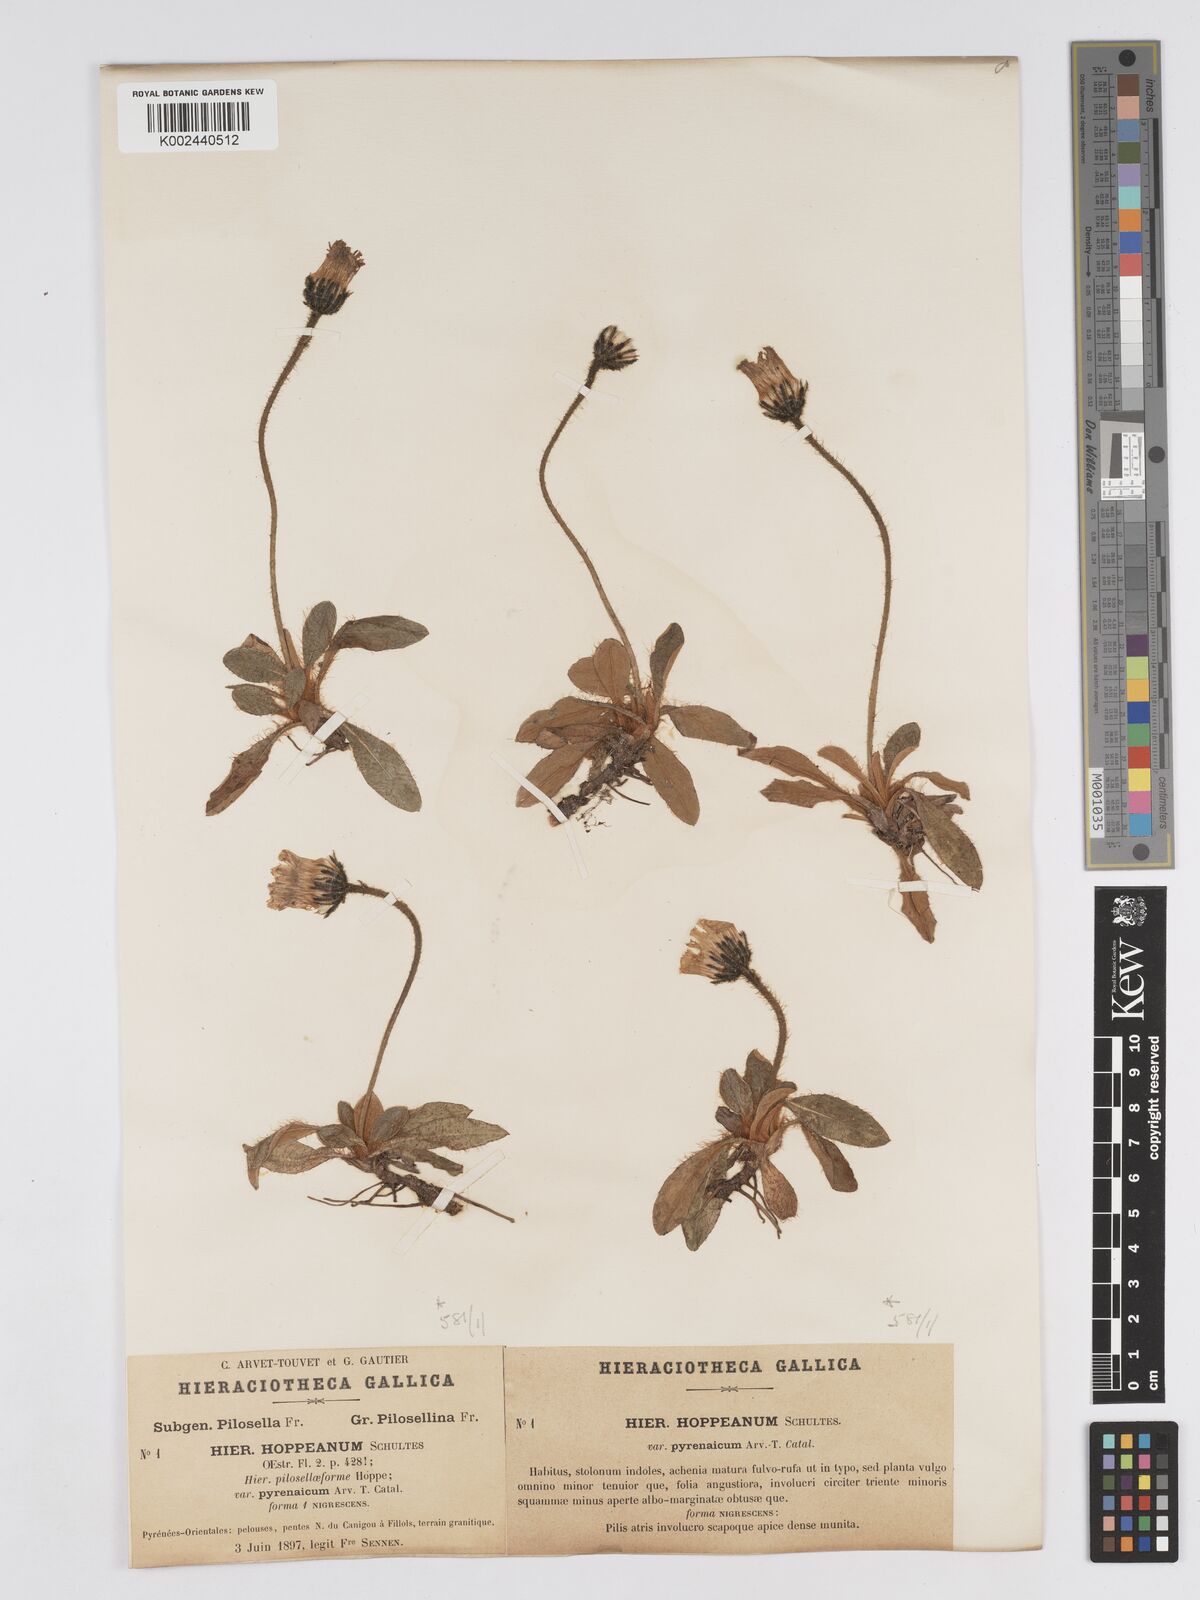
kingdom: Plantae
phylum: Tracheophyta
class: Magnoliopsida
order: Asterales
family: Asteraceae
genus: Pilosella
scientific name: Pilosella hypeurya
